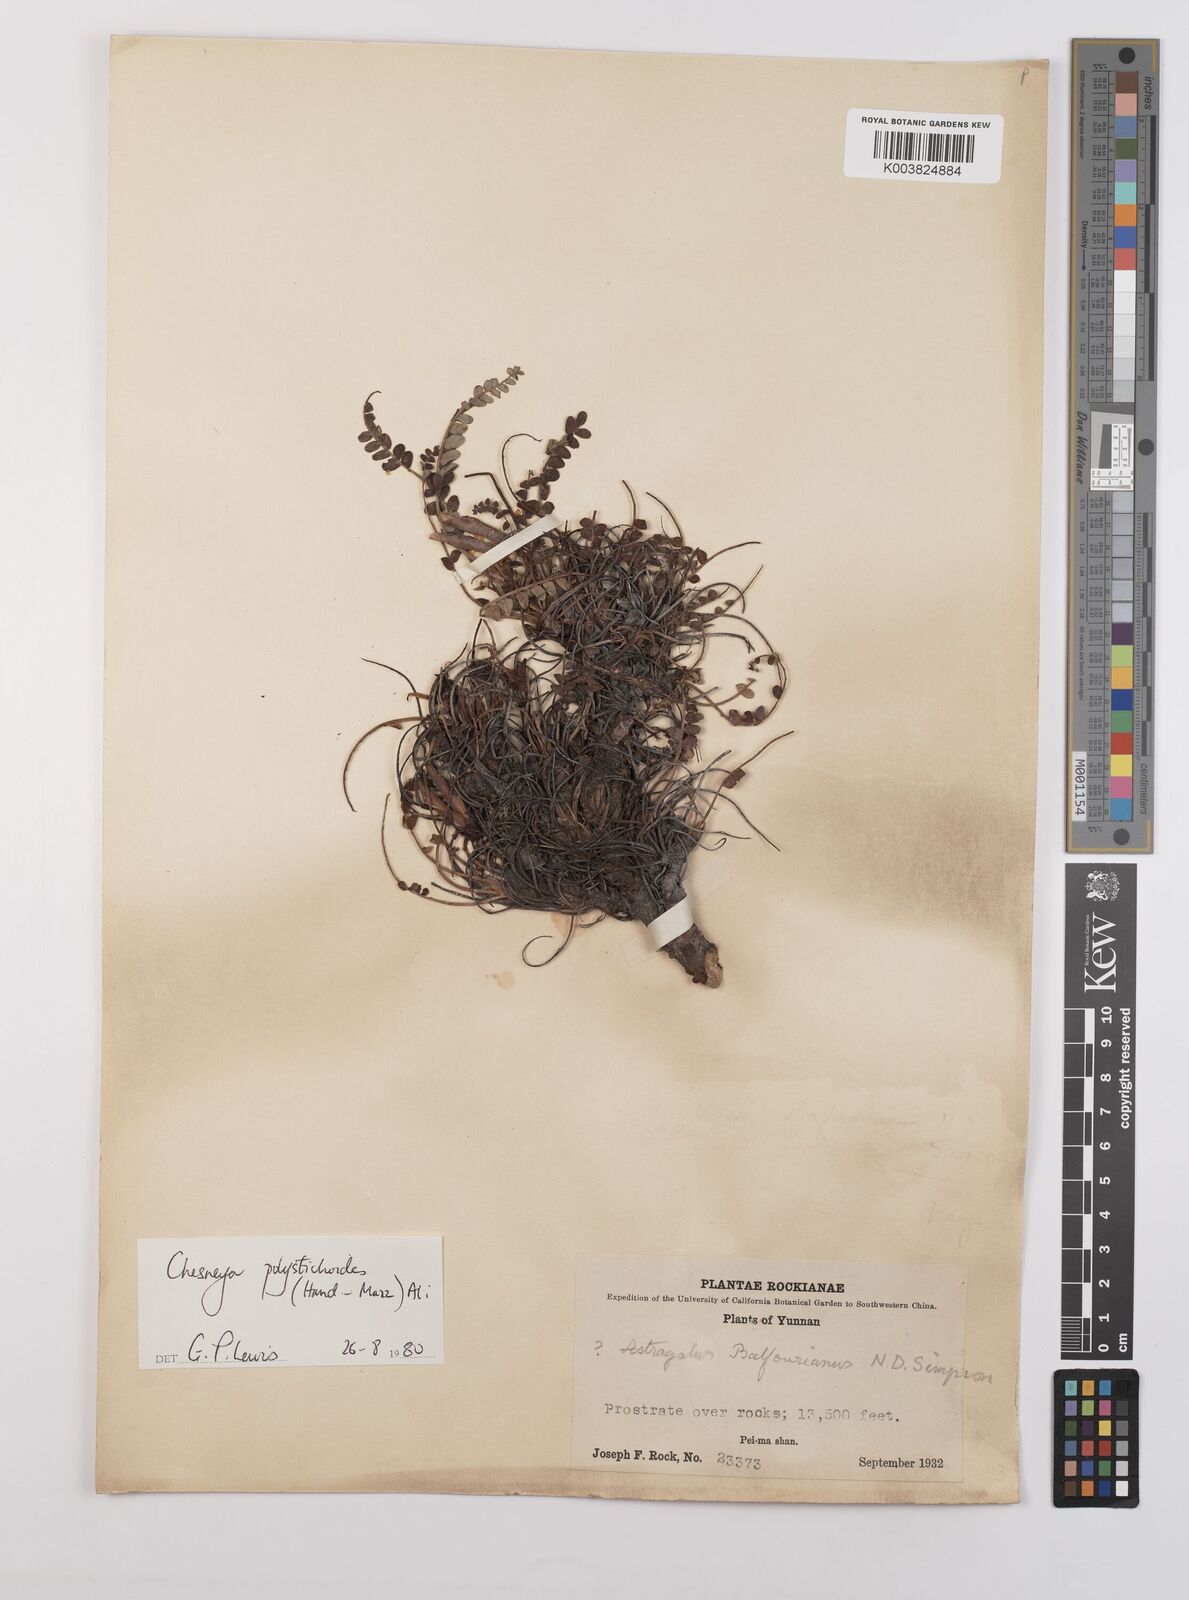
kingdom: Plantae
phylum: Tracheophyta
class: Magnoliopsida
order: Fabales
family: Fabaceae
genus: Chesneya
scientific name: Chesneya polystichoides
